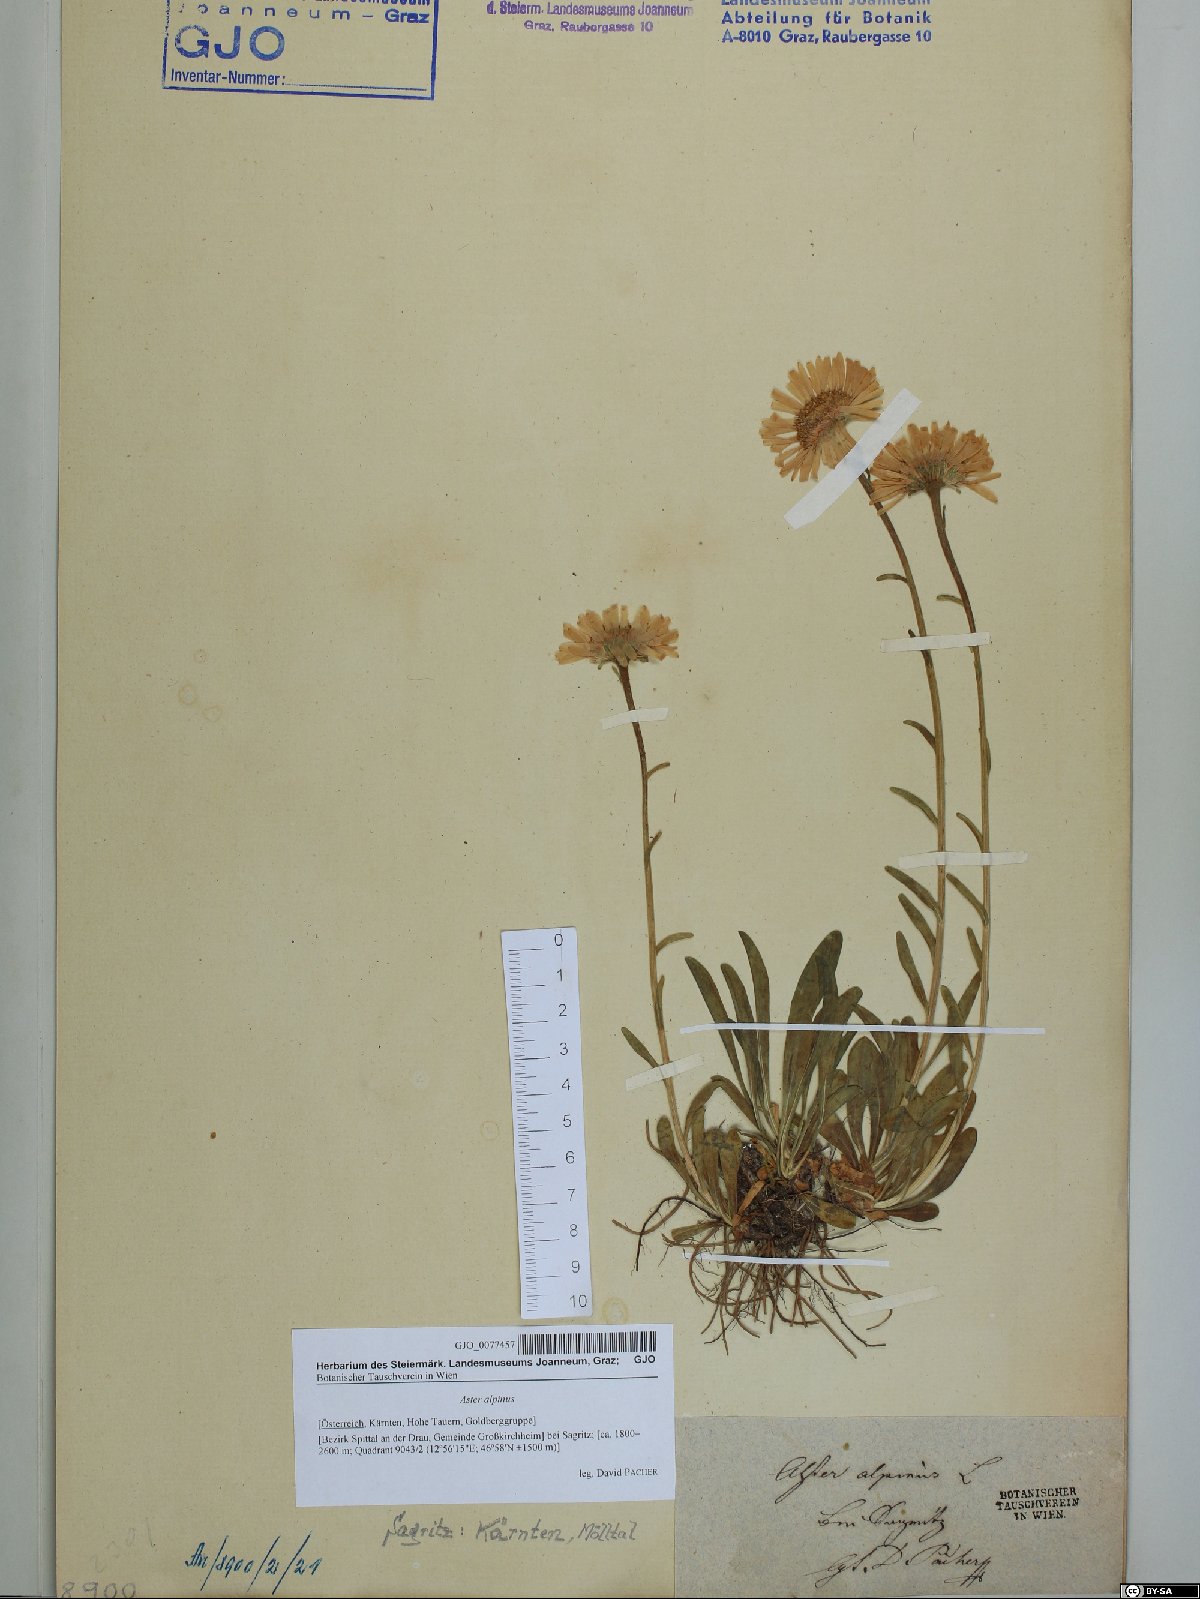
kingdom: Plantae
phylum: Tracheophyta
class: Magnoliopsida
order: Asterales
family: Asteraceae
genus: Aster
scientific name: Aster alpinus
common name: Alpine aster
